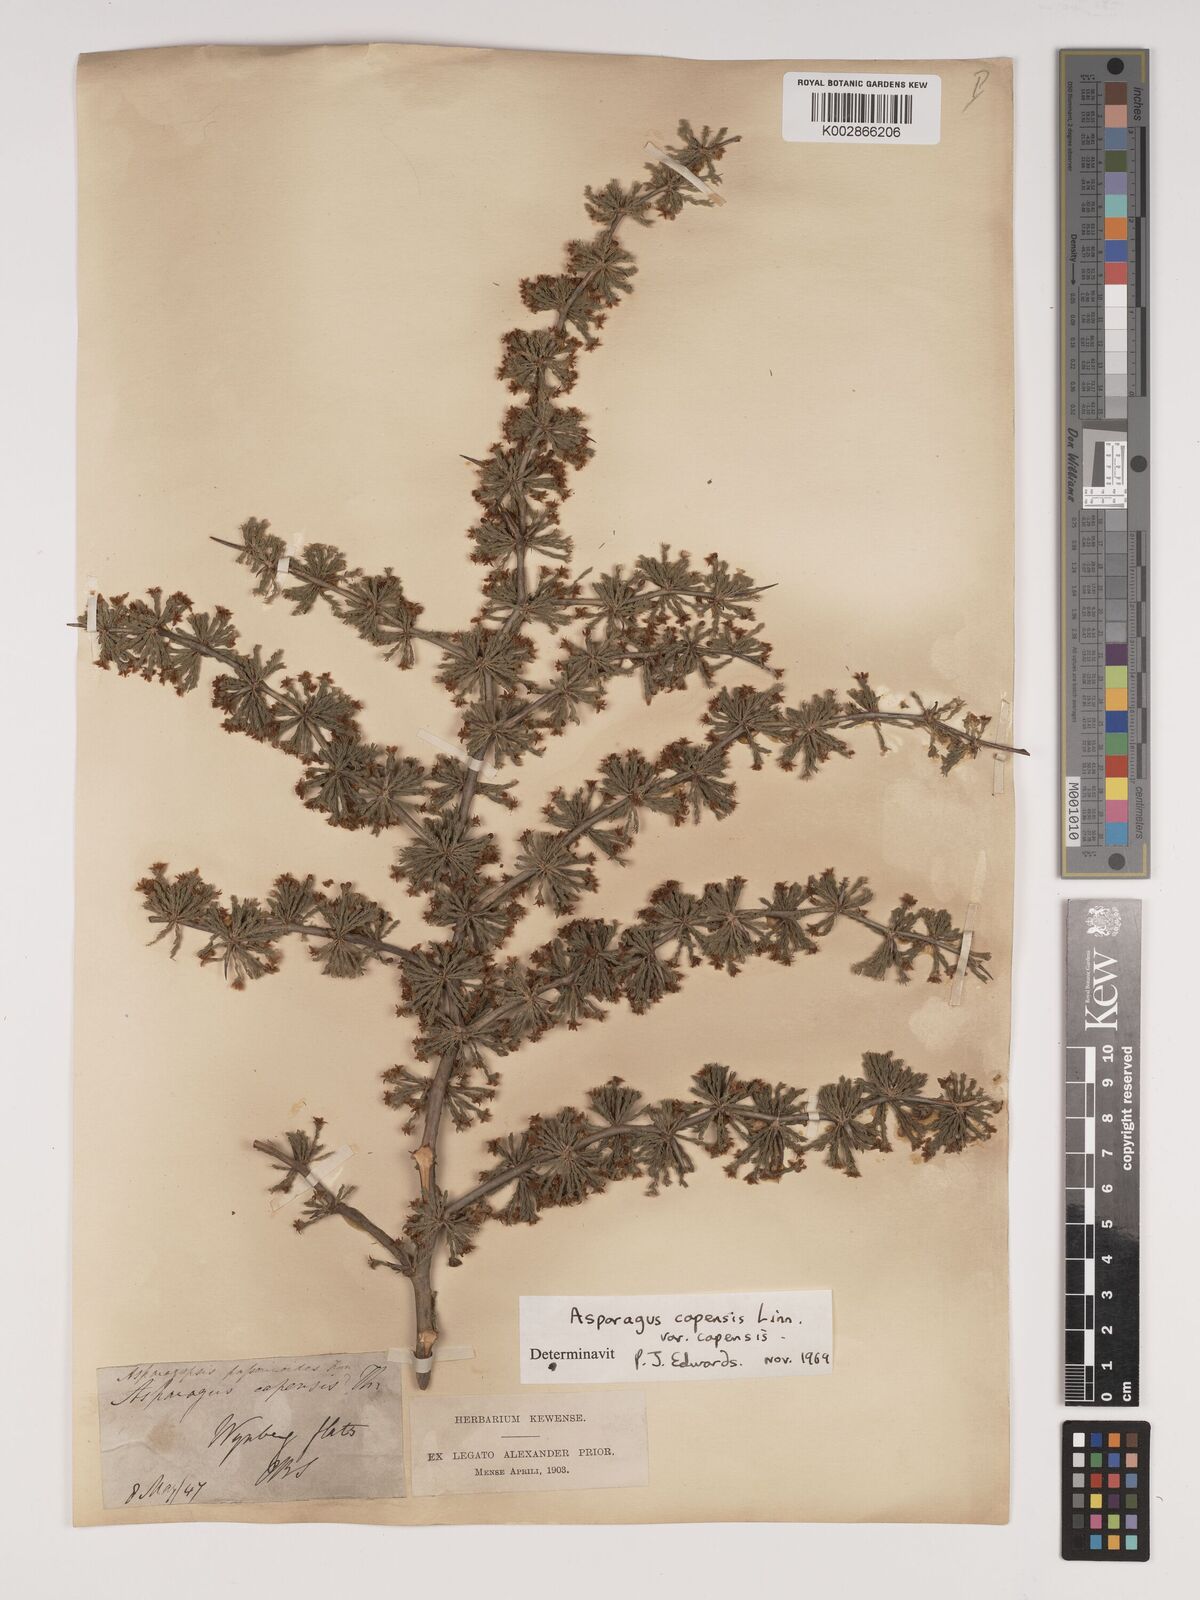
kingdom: Plantae
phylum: Tracheophyta
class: Liliopsida
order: Asparagales
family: Asparagaceae
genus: Asparagus
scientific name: Asparagus capensis
